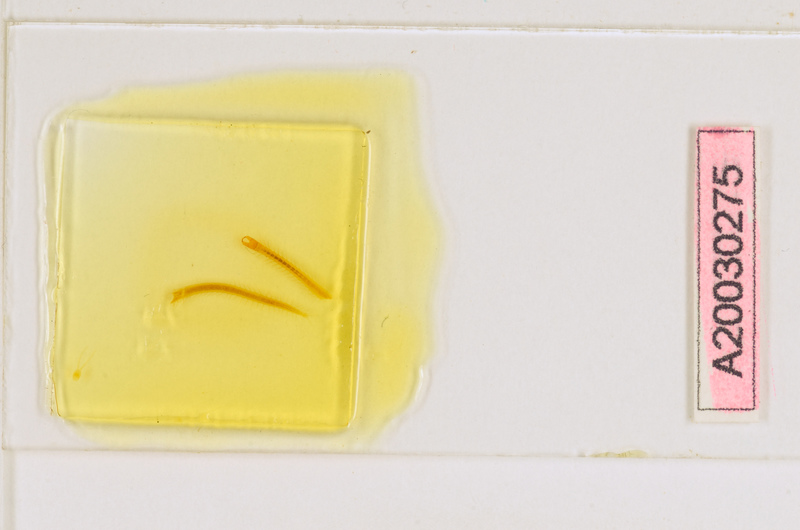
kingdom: Animalia
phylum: Arthropoda
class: Chilopoda
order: Geophilomorpha
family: Mecistocephalidae
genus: Tygarrup
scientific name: Tygarrup javanicus
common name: Centipede
